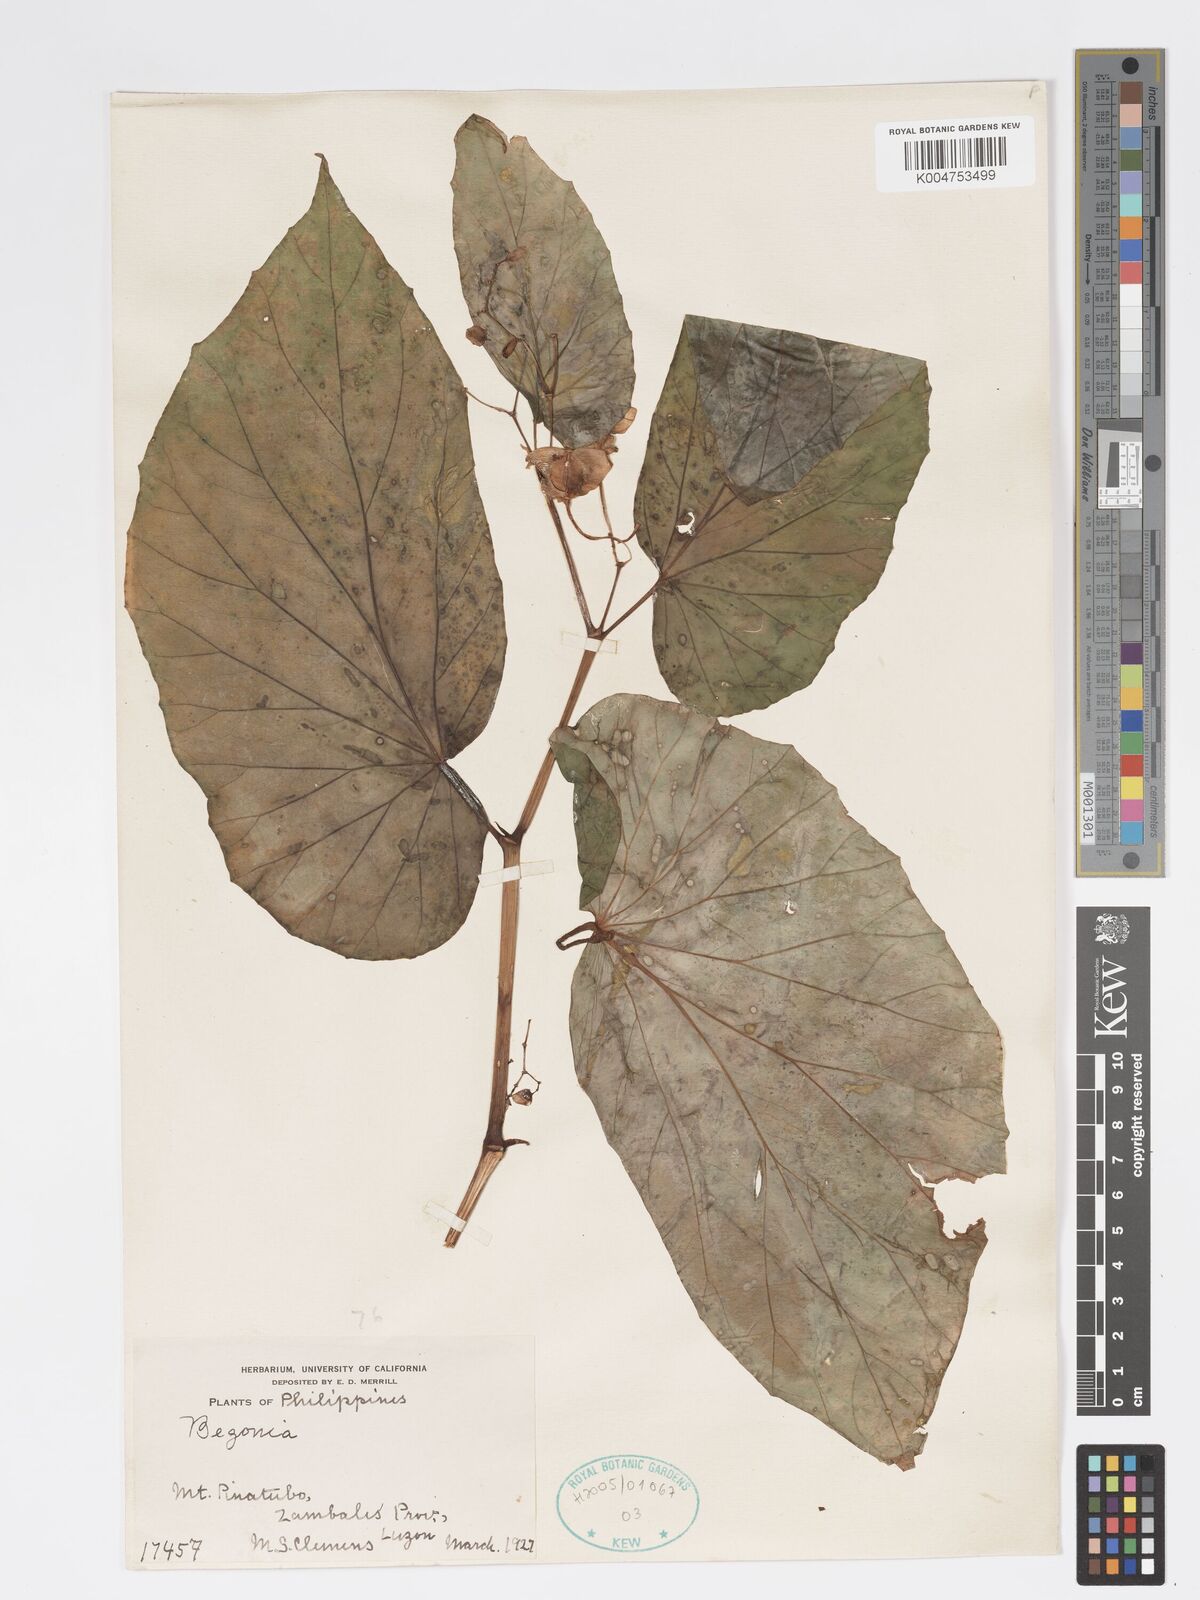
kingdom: Plantae
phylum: Tracheophyta
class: Magnoliopsida
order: Cucurbitales
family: Begoniaceae
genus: Begonia
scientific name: Begonia
